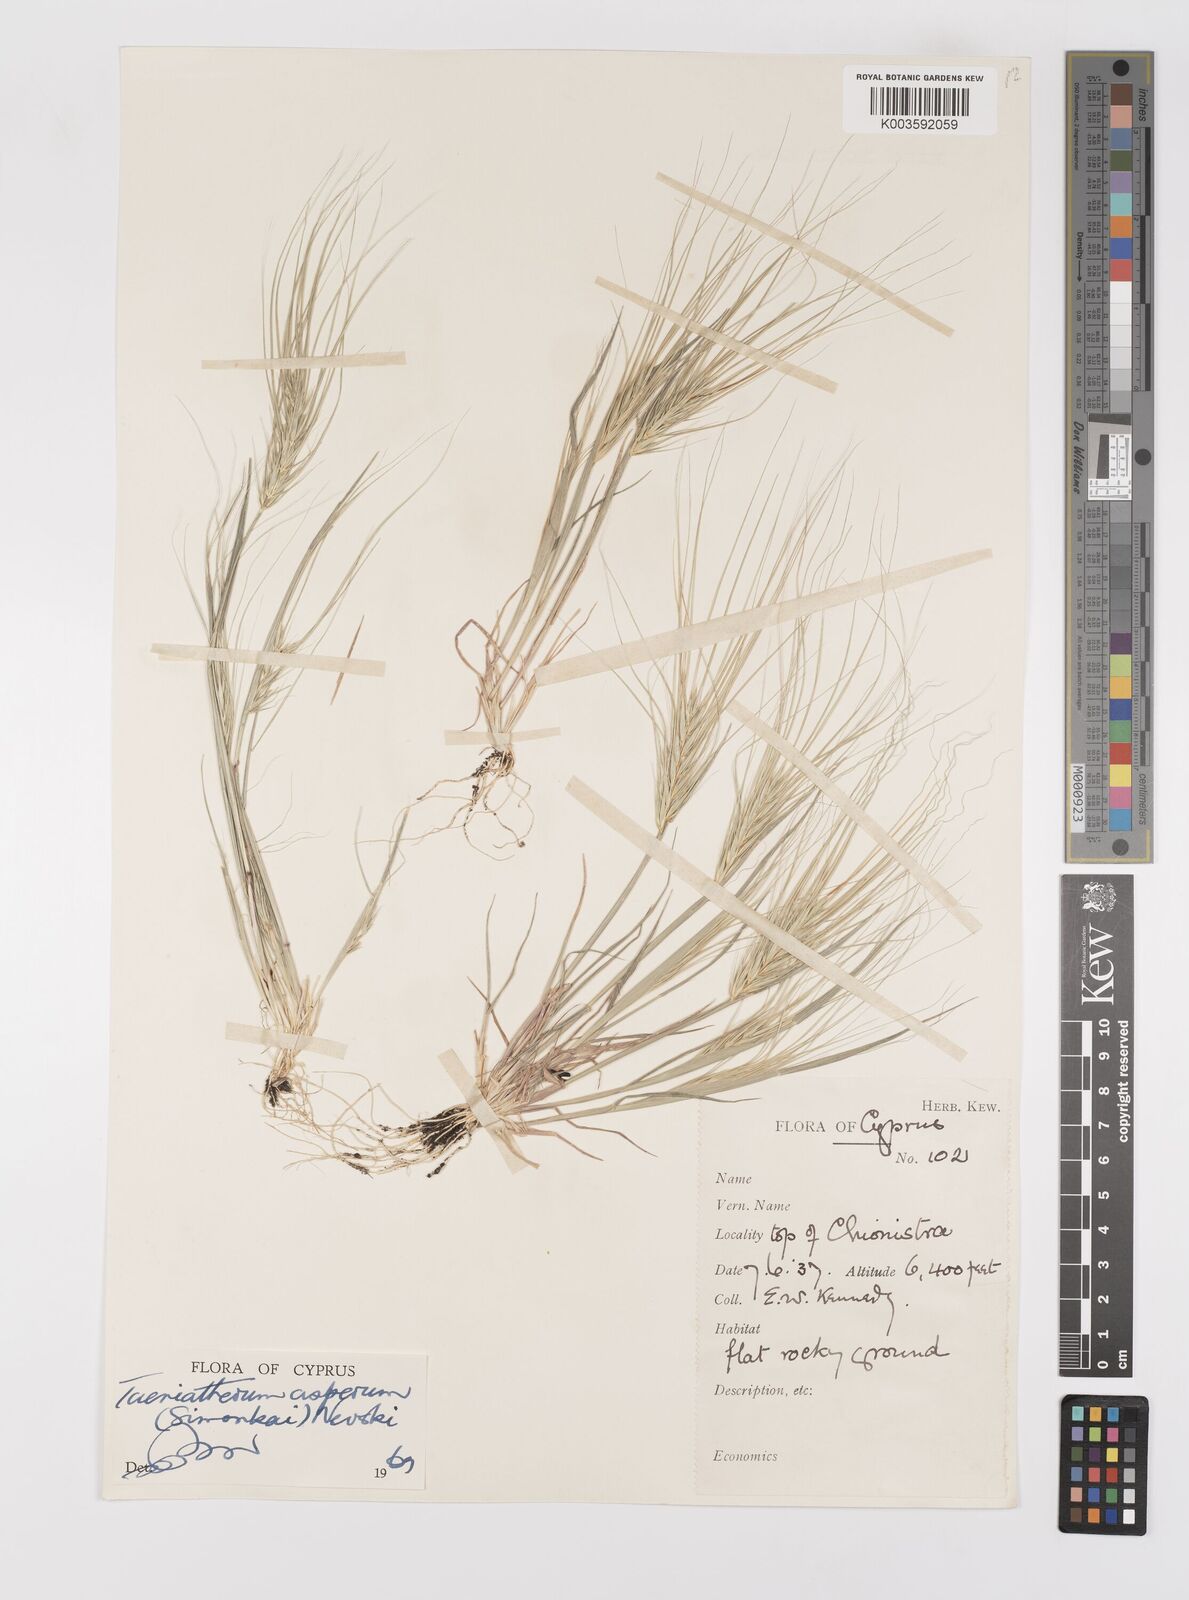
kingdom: Plantae
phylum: Tracheophyta
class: Liliopsida
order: Poales
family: Poaceae
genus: Taeniatherum
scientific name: Taeniatherum caput-medusae
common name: Medusahead
